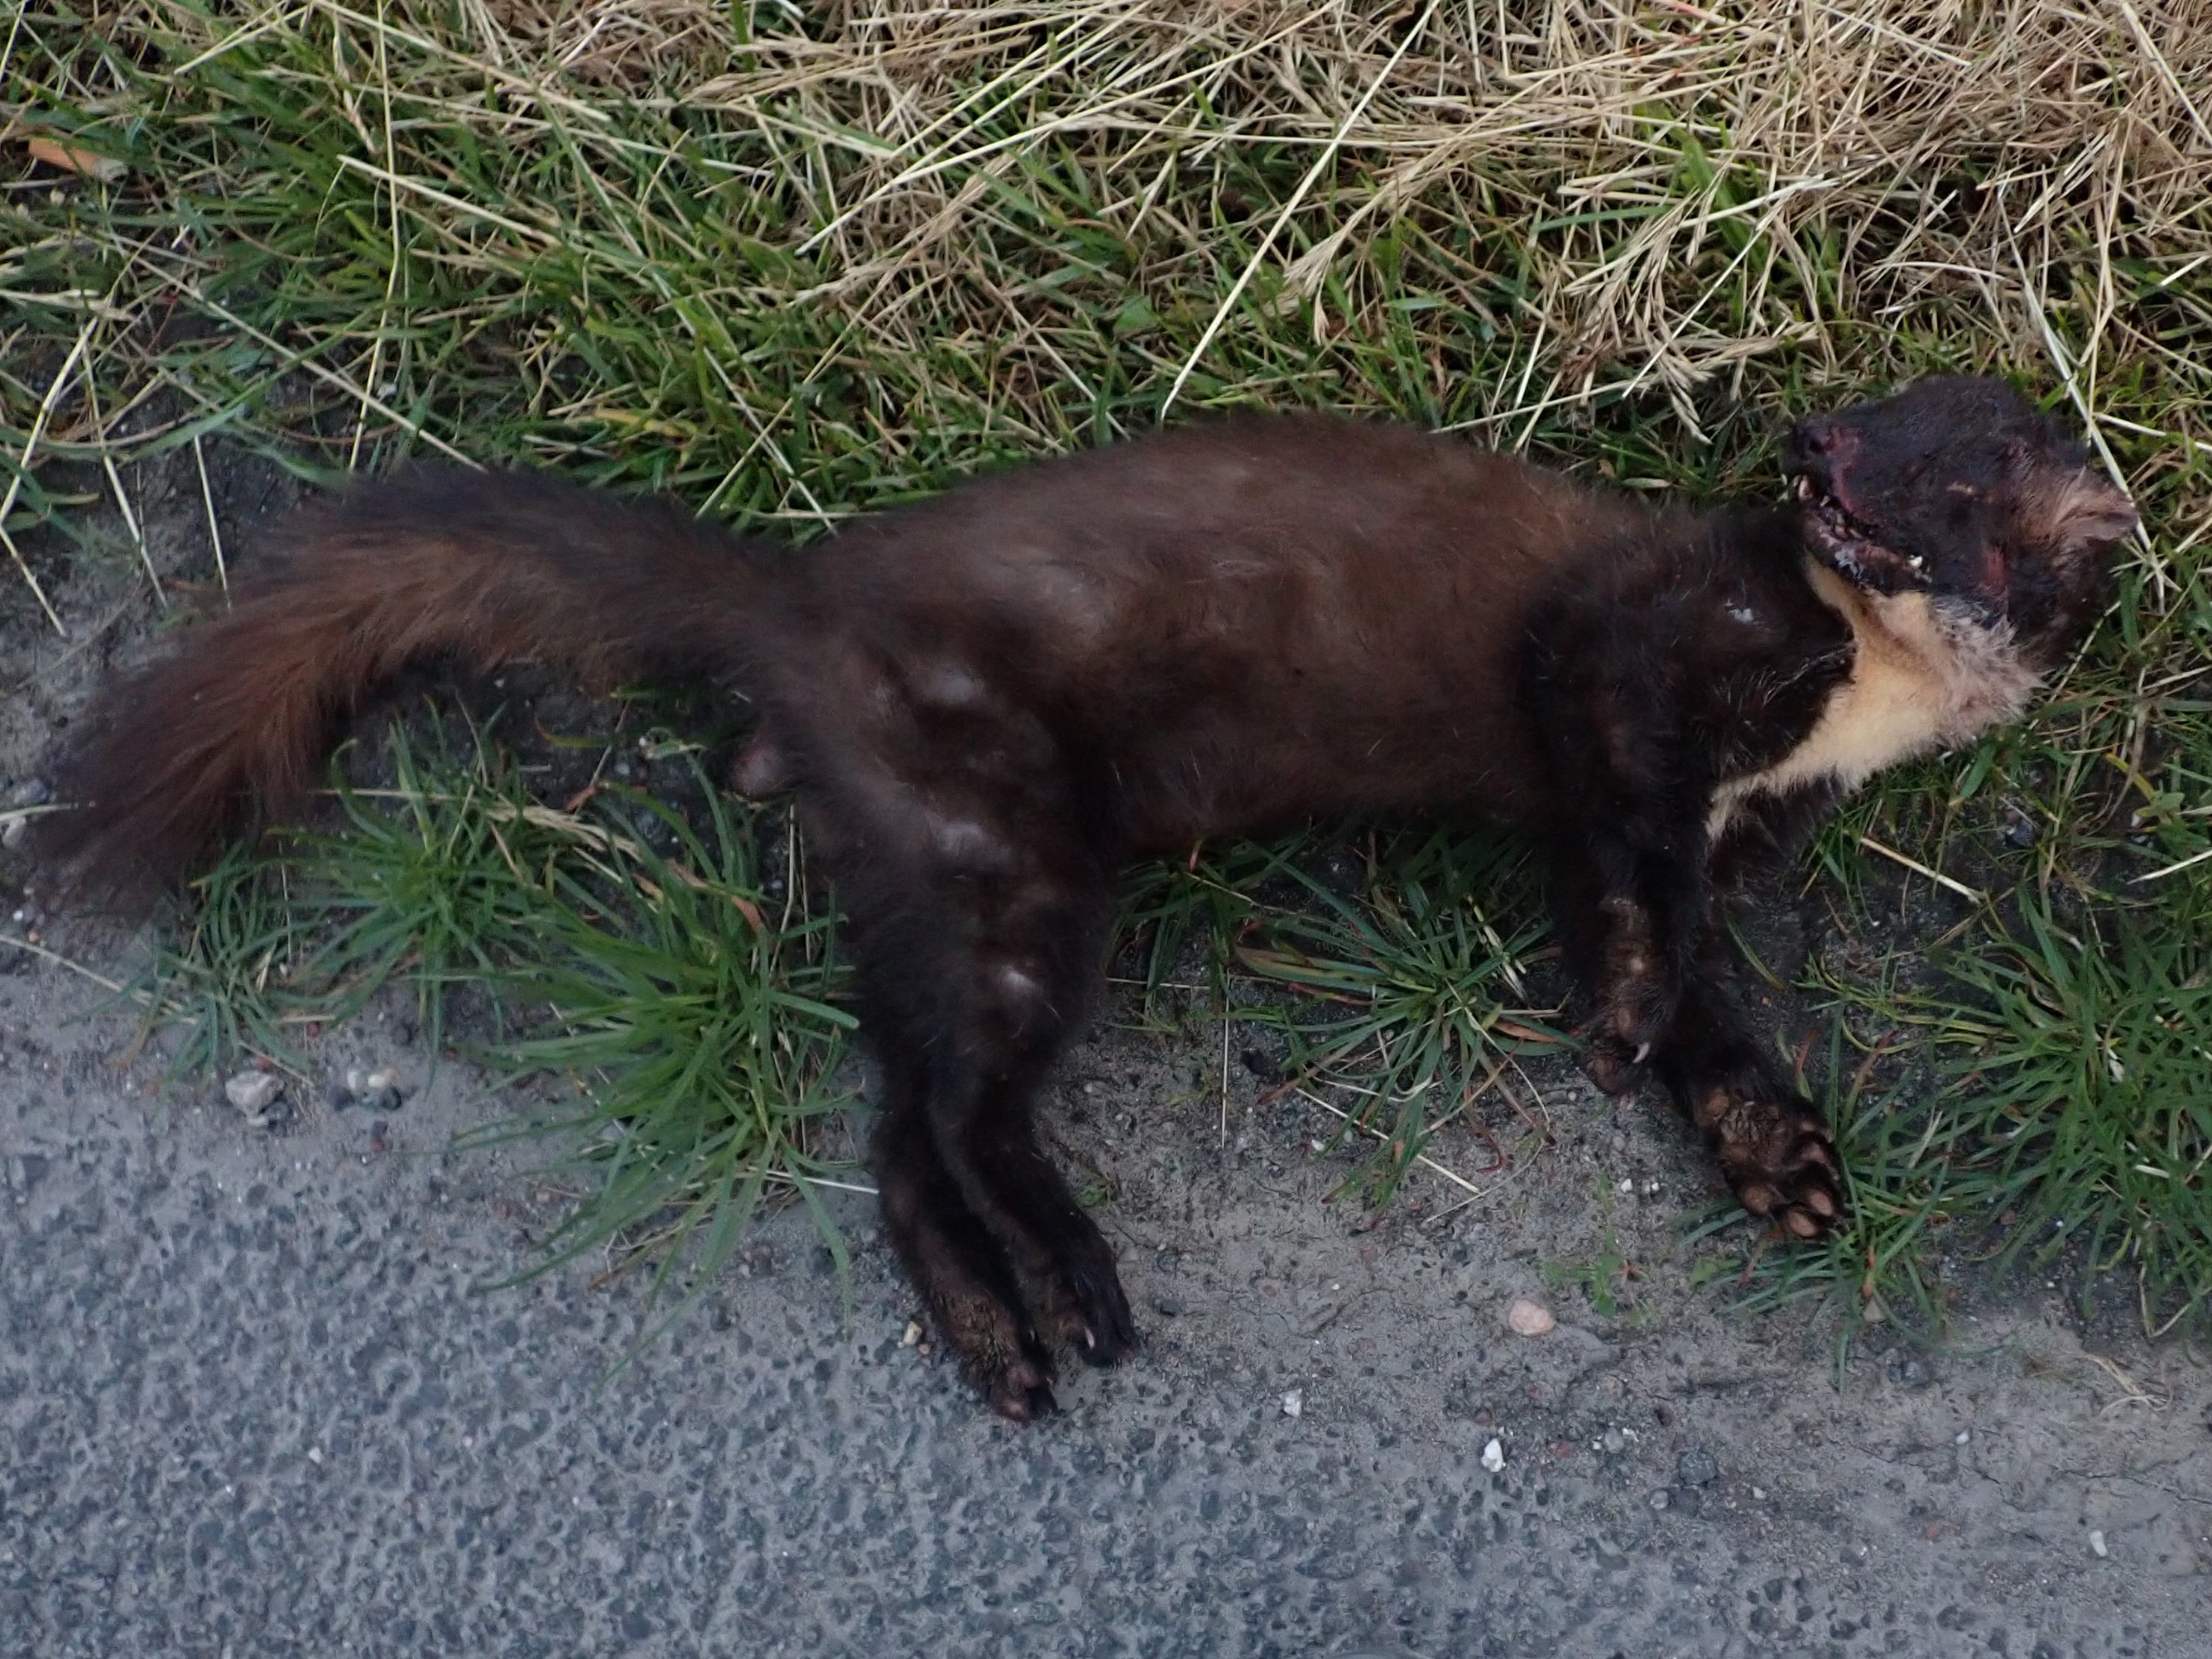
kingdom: Animalia
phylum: Chordata
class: Mammalia
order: Carnivora
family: Mustelidae
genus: Martes
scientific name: Martes martes
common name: Skovmår
